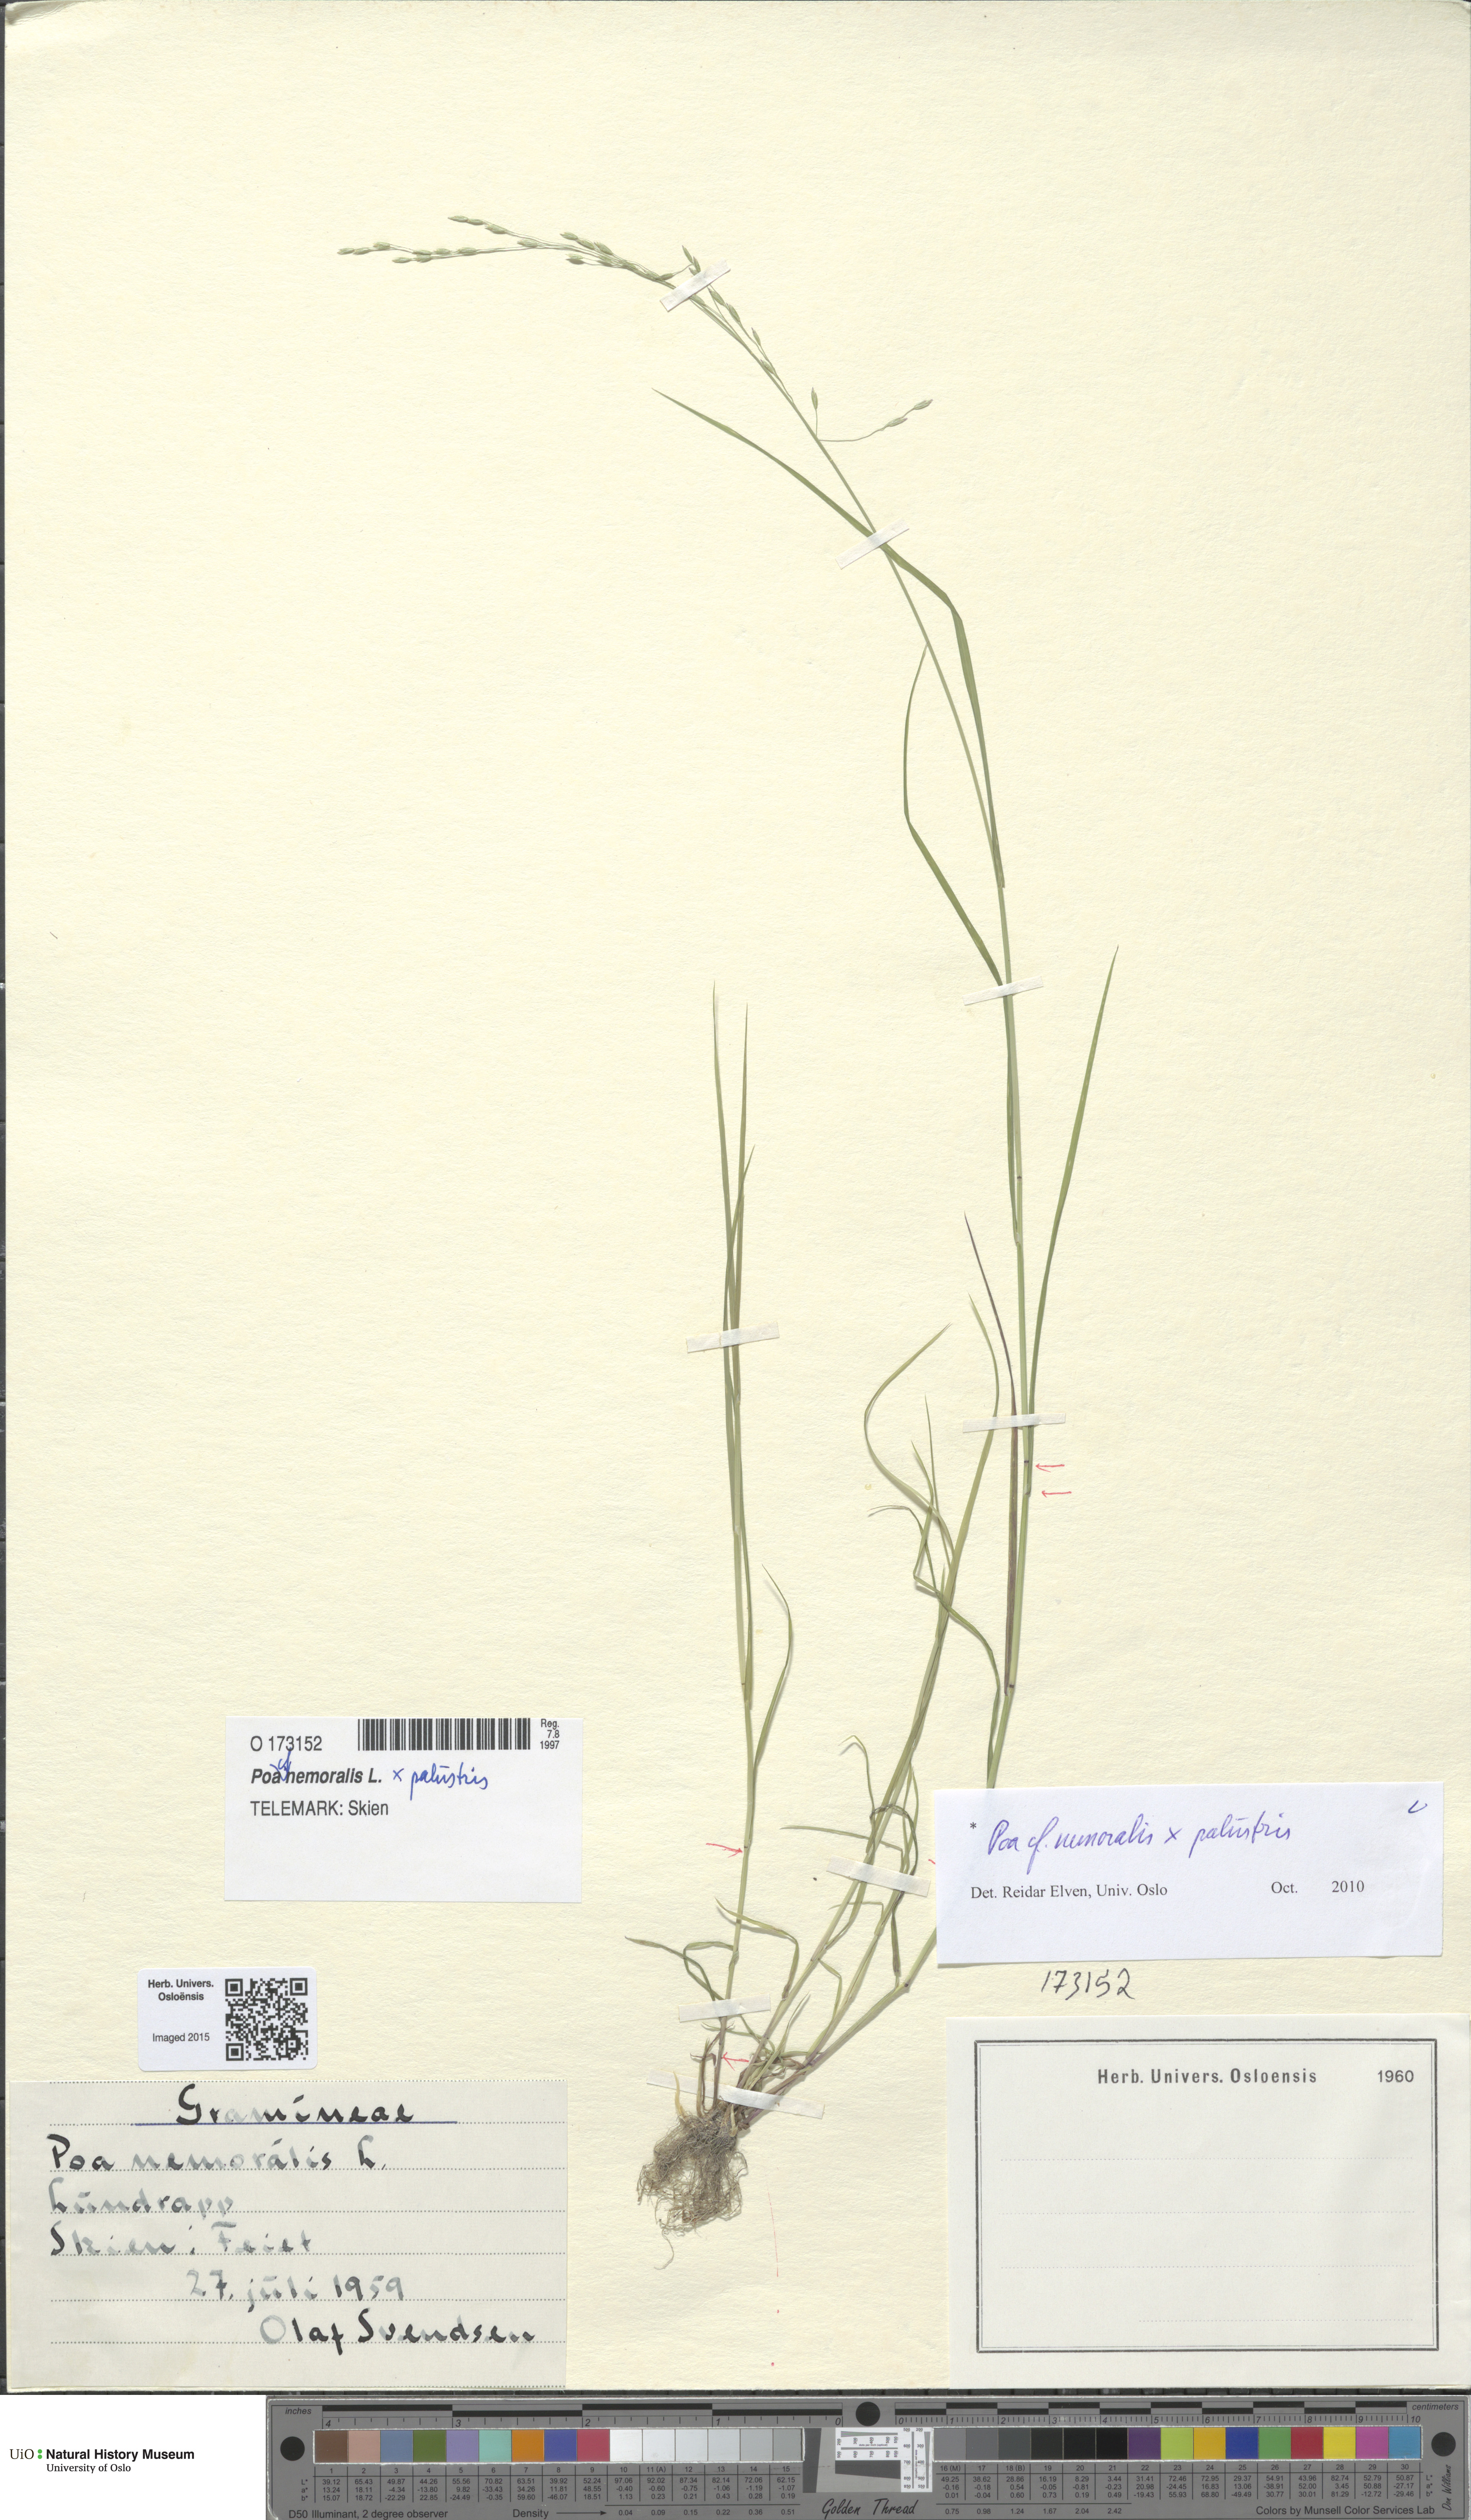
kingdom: Plantae
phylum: Tracheophyta
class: Liliopsida
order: Poales
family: Poaceae
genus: Poa
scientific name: Poa
